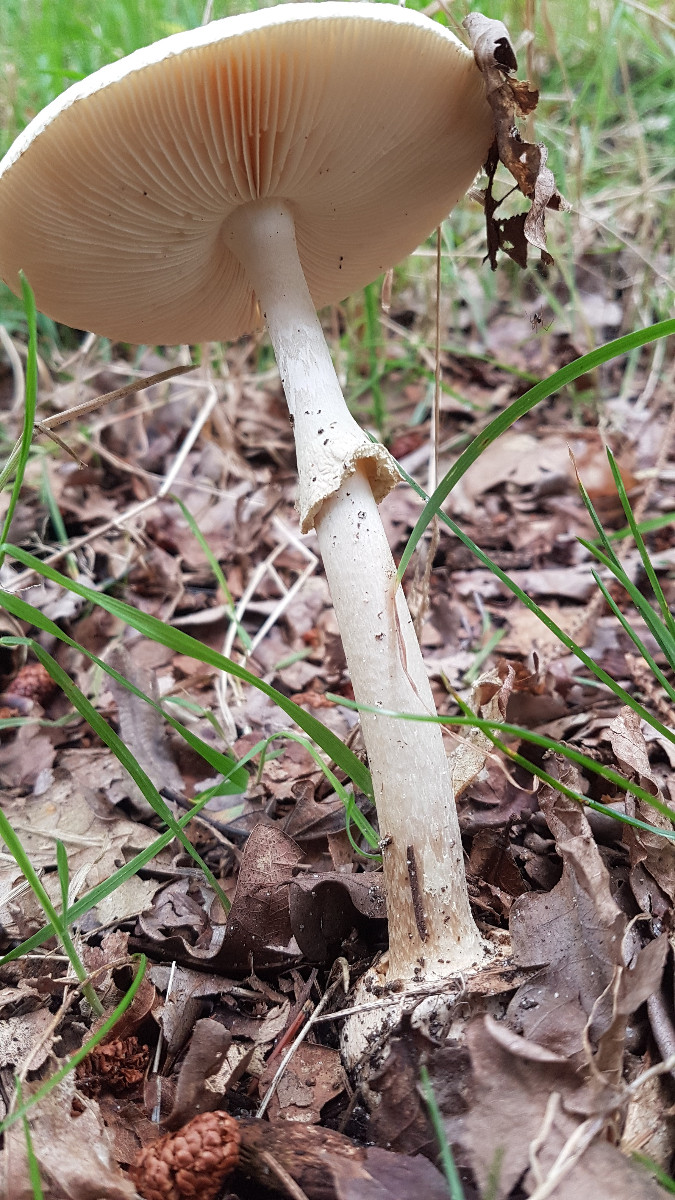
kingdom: Fungi
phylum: Basidiomycota
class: Agaricomycetes
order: Agaricales
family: Amanitaceae
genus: Amanita
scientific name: Amanita citrina
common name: kugleknoldet fluesvamp
